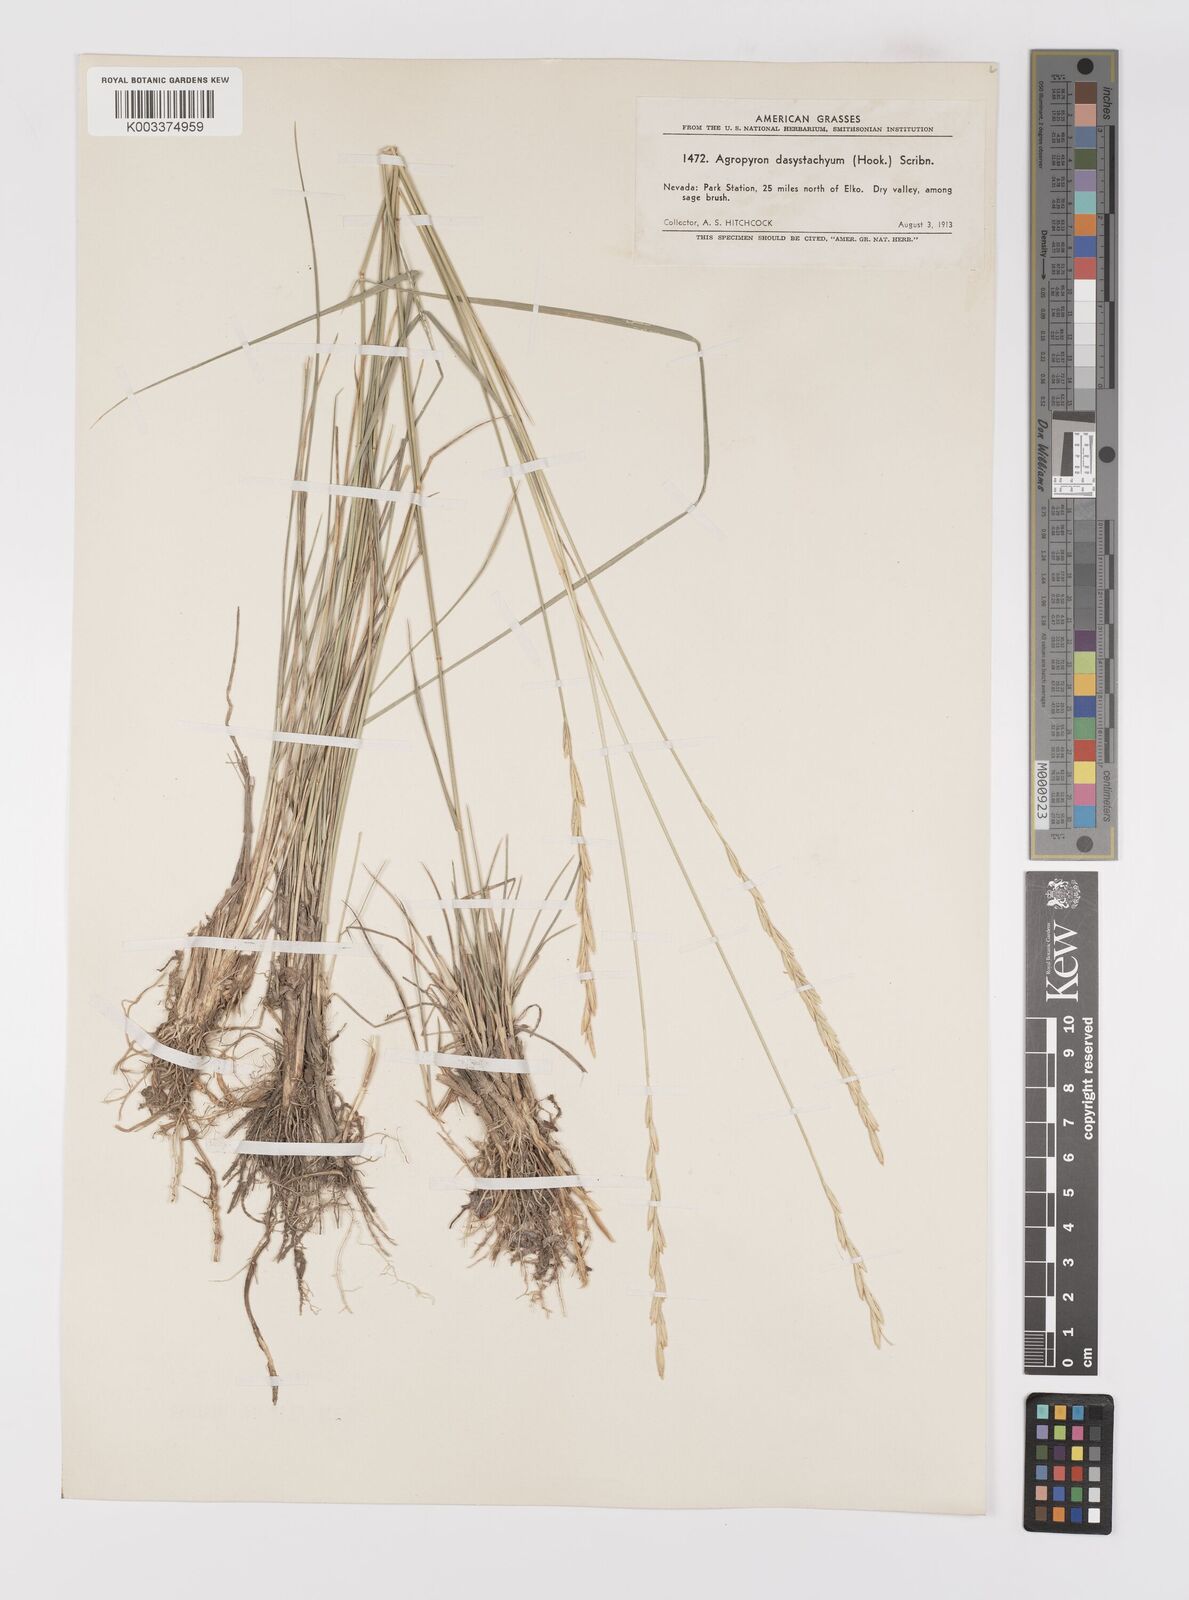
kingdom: Plantae
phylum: Tracheophyta
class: Liliopsida
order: Poales
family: Poaceae
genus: Elymus
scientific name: Elymus lanceolatus
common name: Thick-spike wheatgrass
